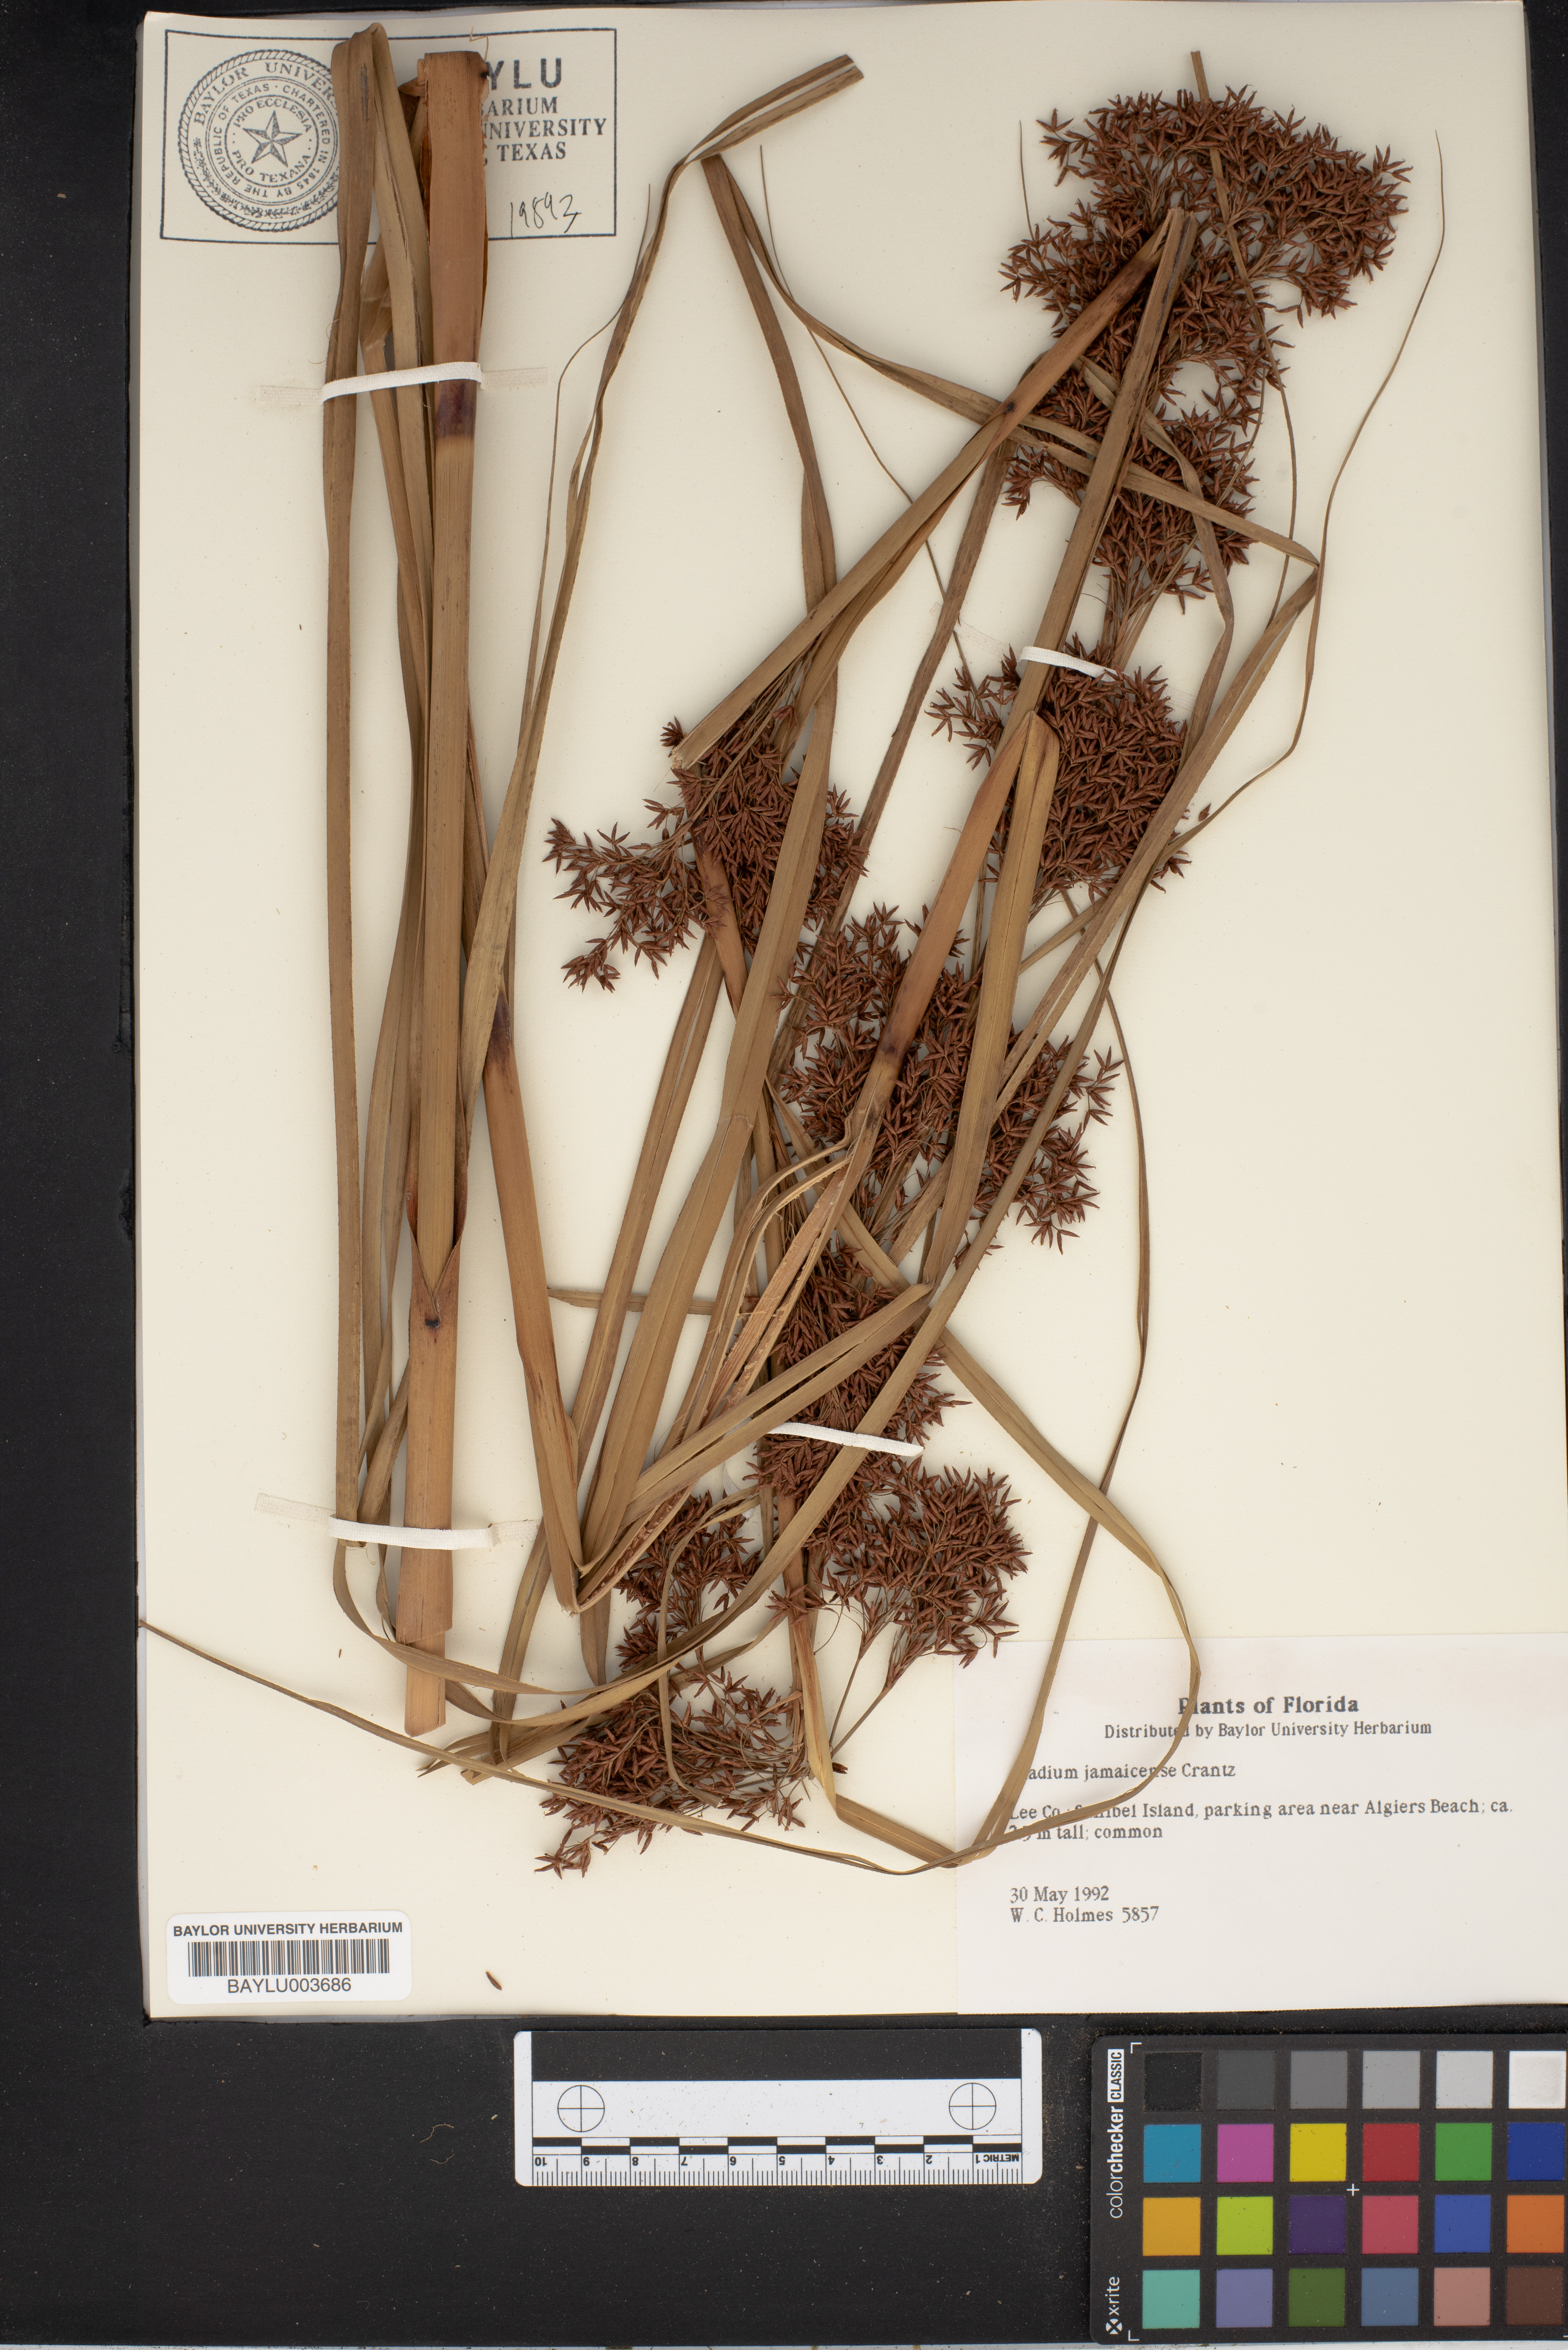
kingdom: Plantae
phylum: Tracheophyta
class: Liliopsida
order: Poales
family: Cyperaceae
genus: Cladium
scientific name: Cladium mariscus
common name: Great fen-sedge
